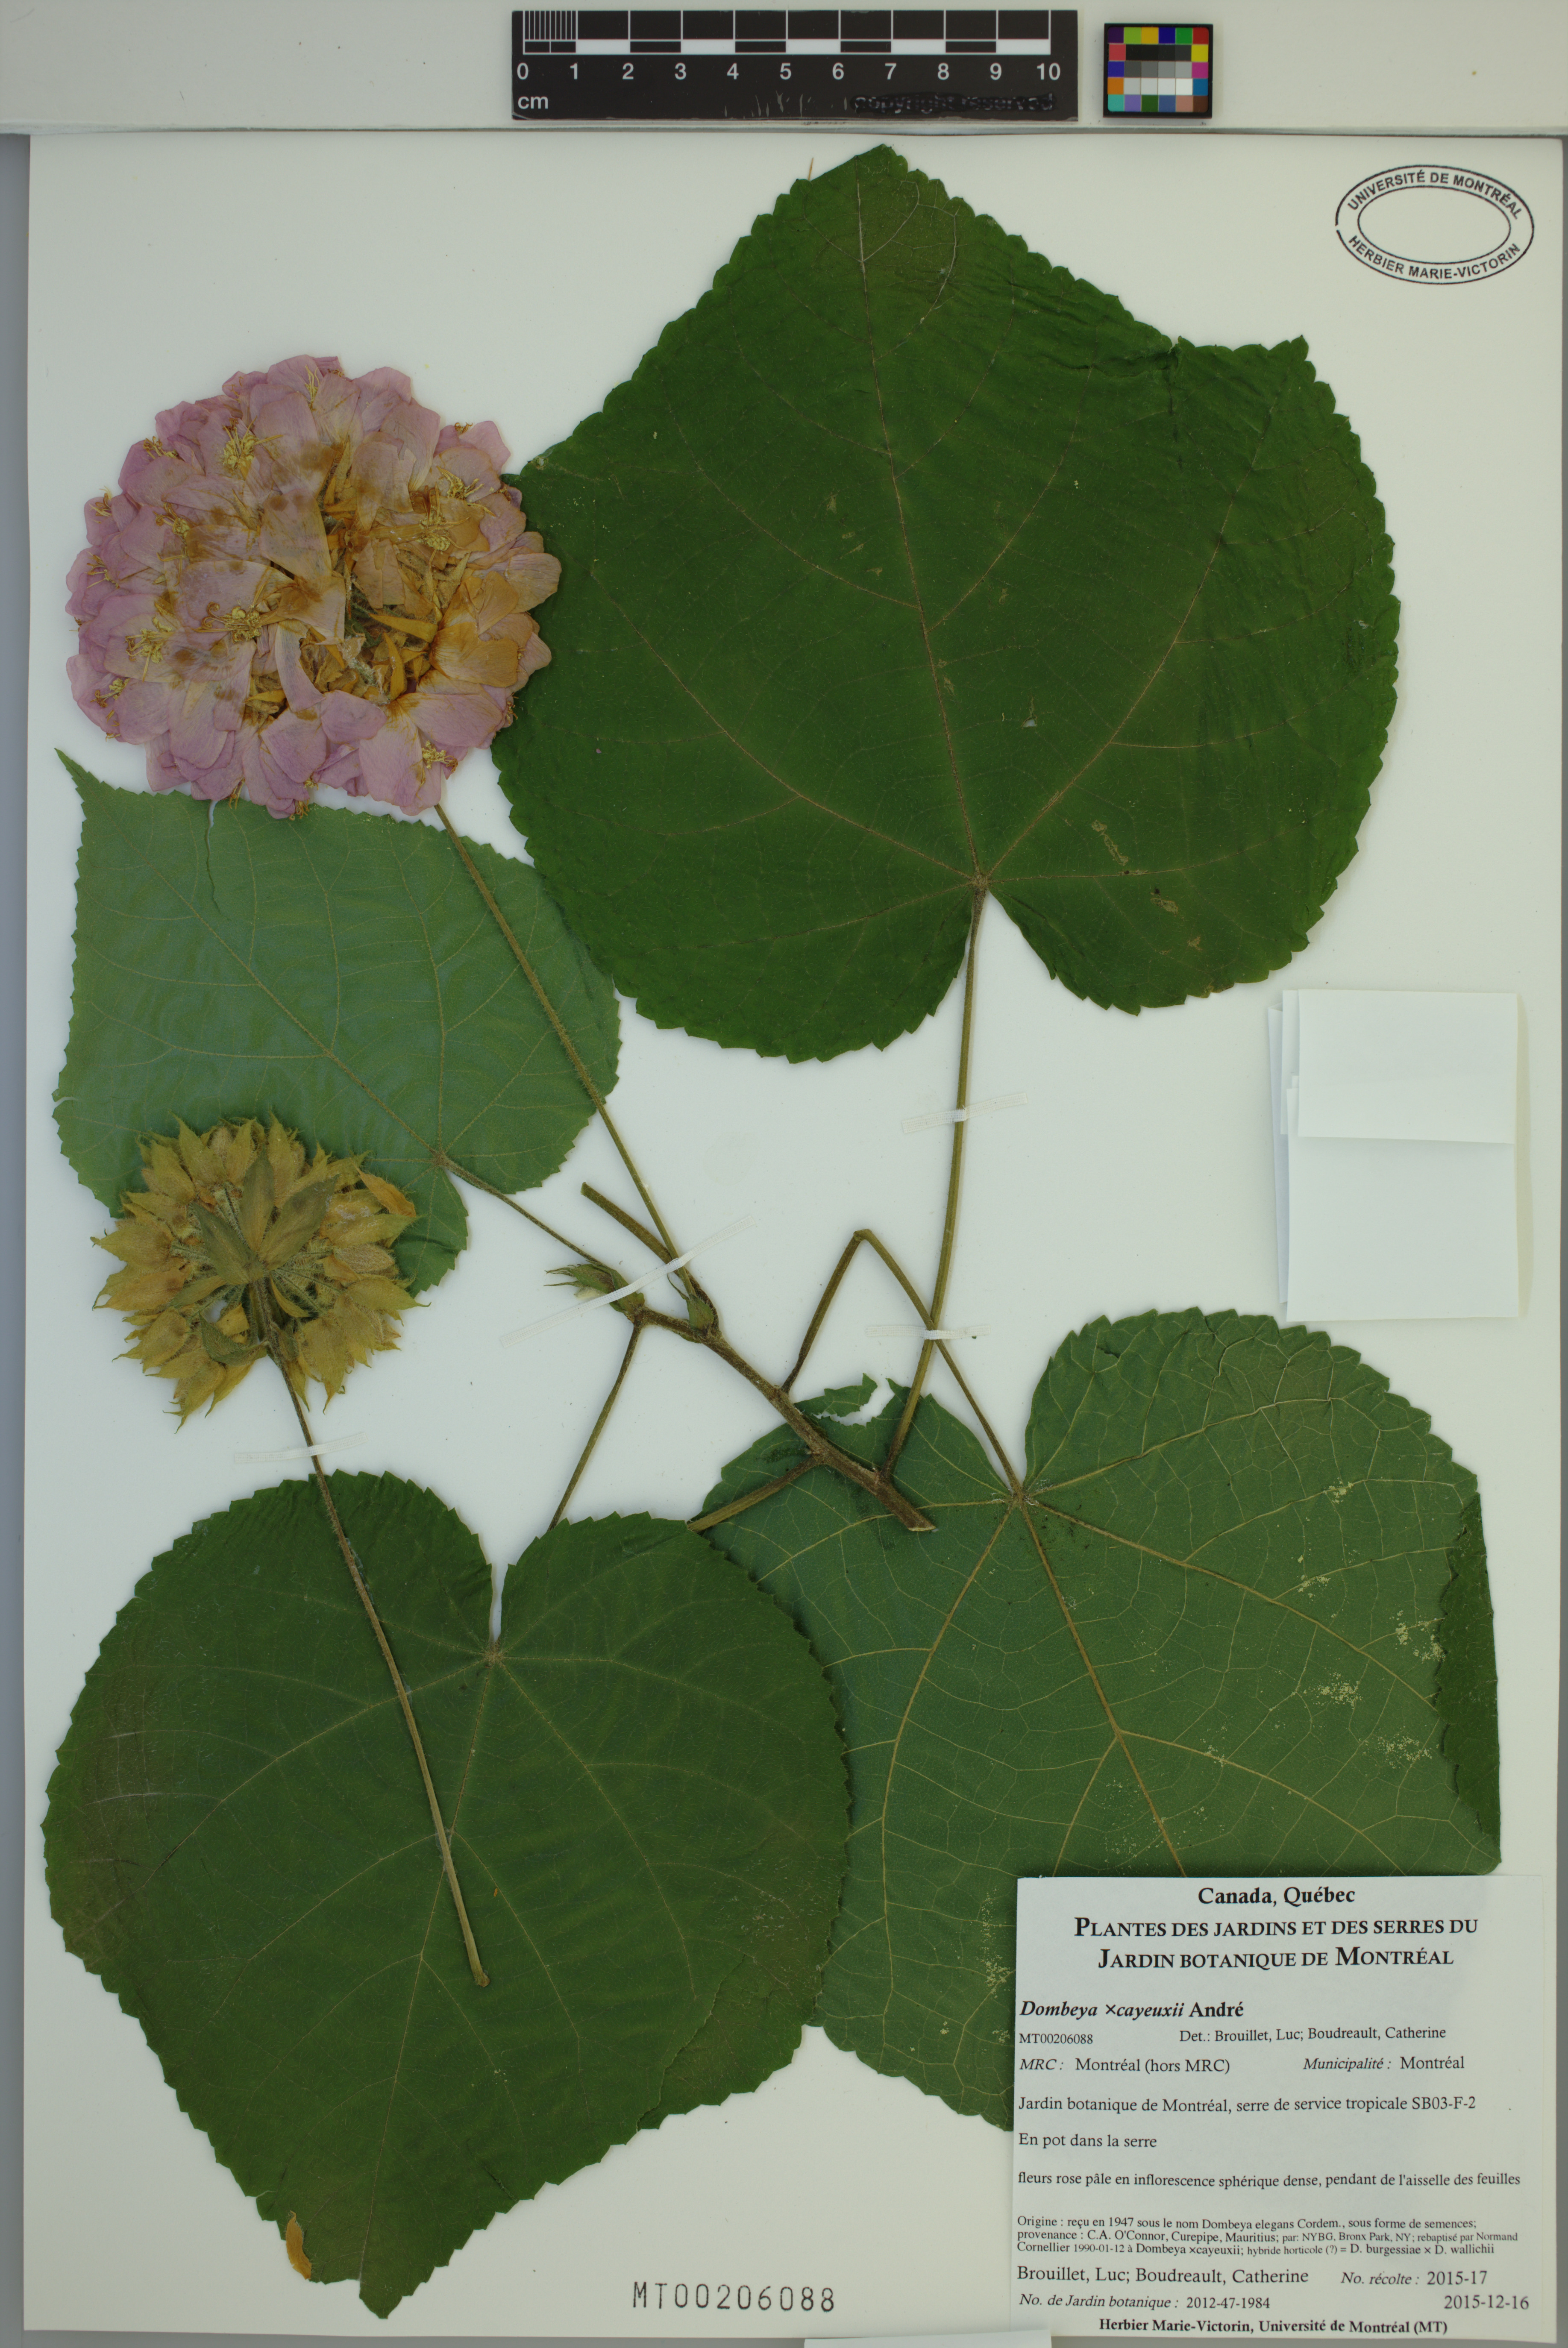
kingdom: Plantae
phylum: Tracheophyta
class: Magnoliopsida
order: Malvales
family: Malvaceae
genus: Dombeya
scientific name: Dombeya cayeuxii
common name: Pompomtree
